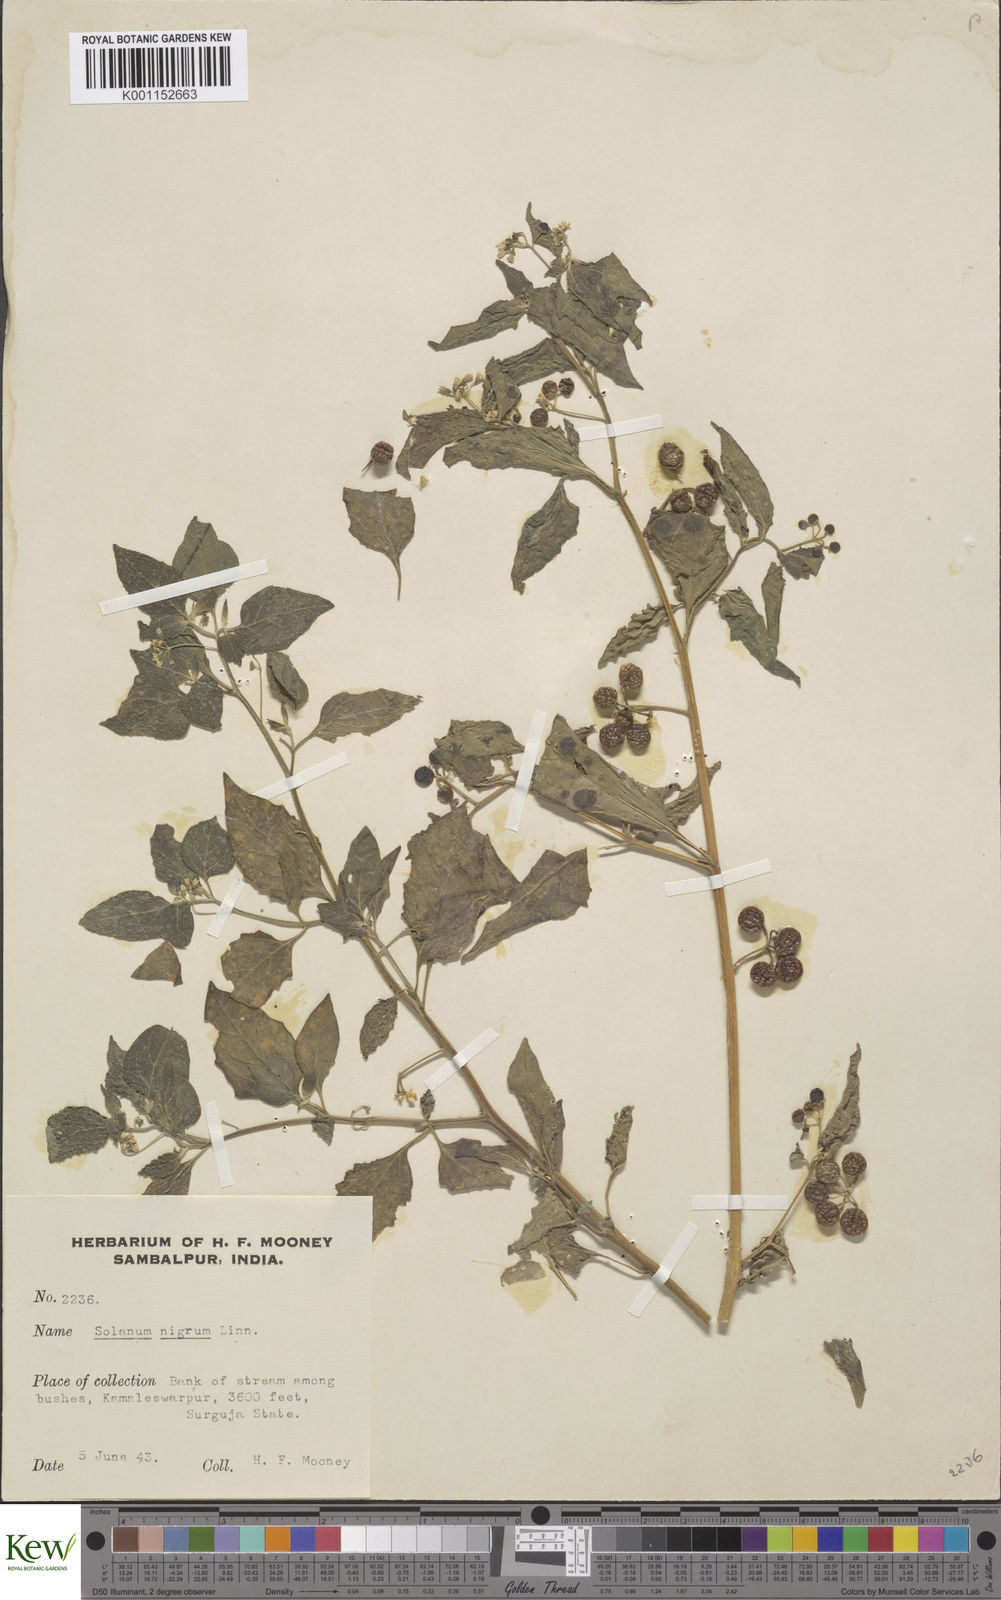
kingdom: Plantae
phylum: Tracheophyta
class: Magnoliopsida
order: Solanales
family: Solanaceae
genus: Solanum
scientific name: Solanum nigrum
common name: Black nightshade
